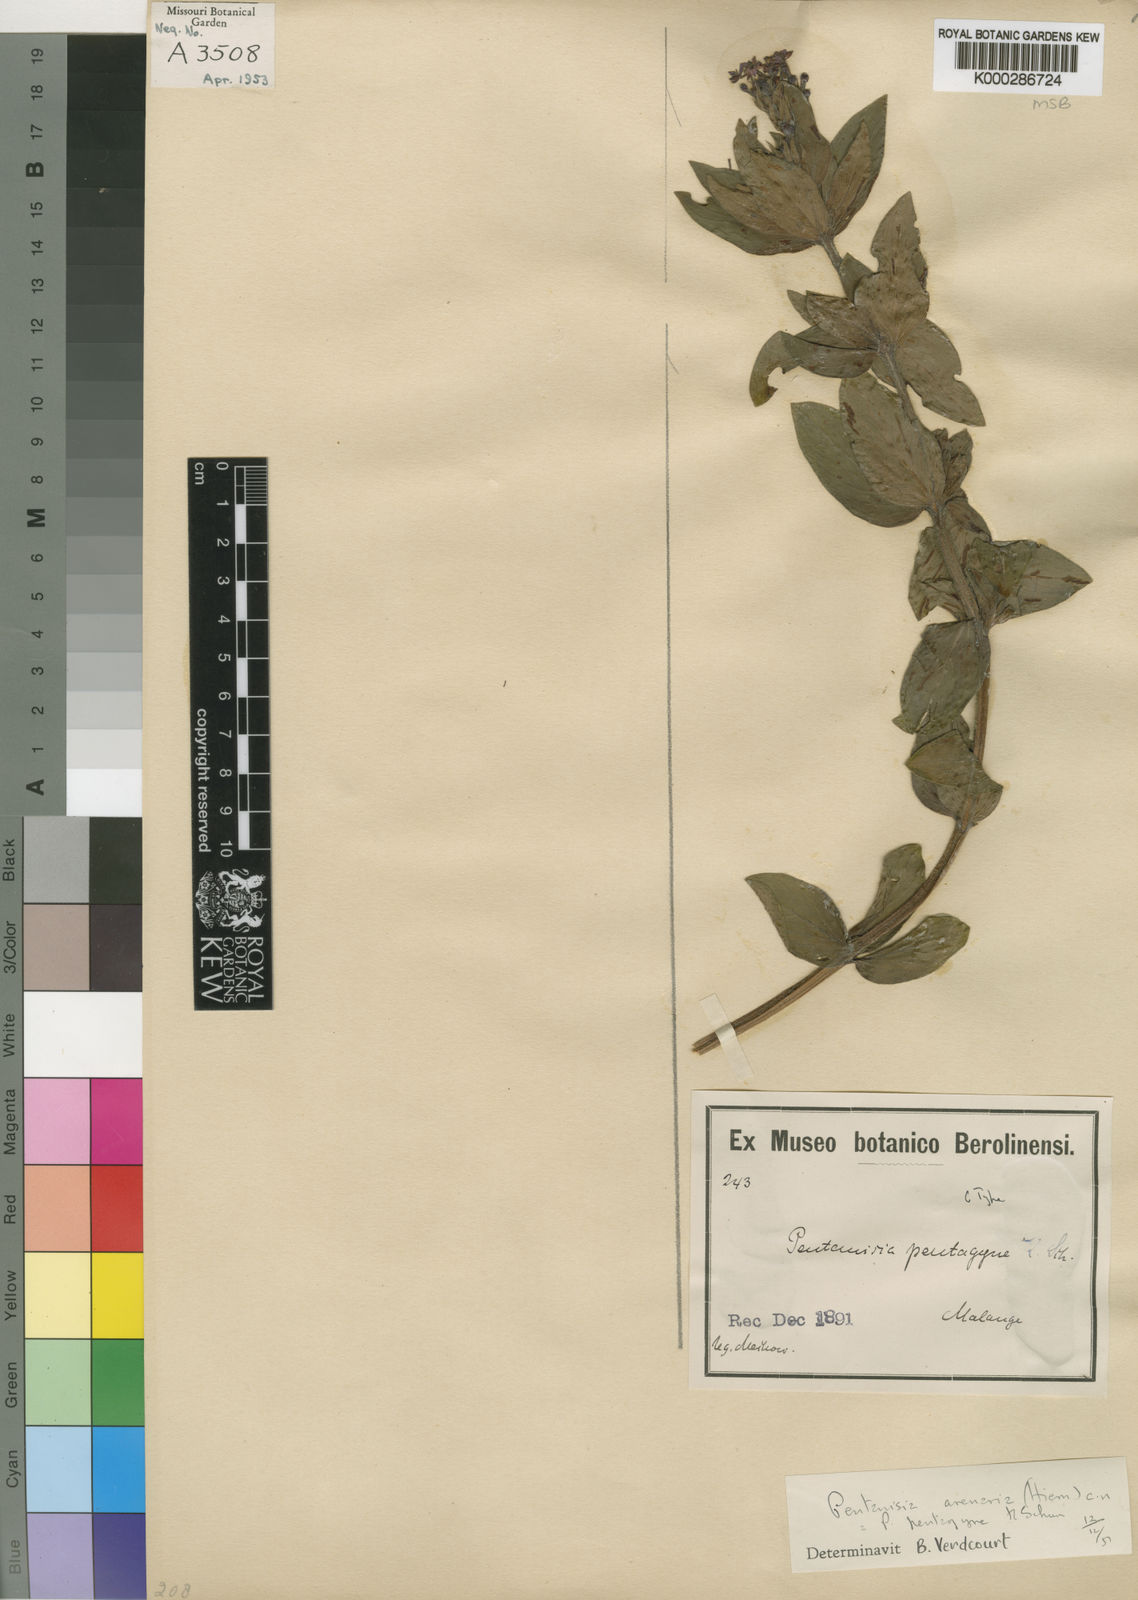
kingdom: Plantae
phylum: Tracheophyta
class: Magnoliopsida
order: Gentianales
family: Rubiaceae
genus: Pentanisia
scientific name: Pentanisia arenaria
